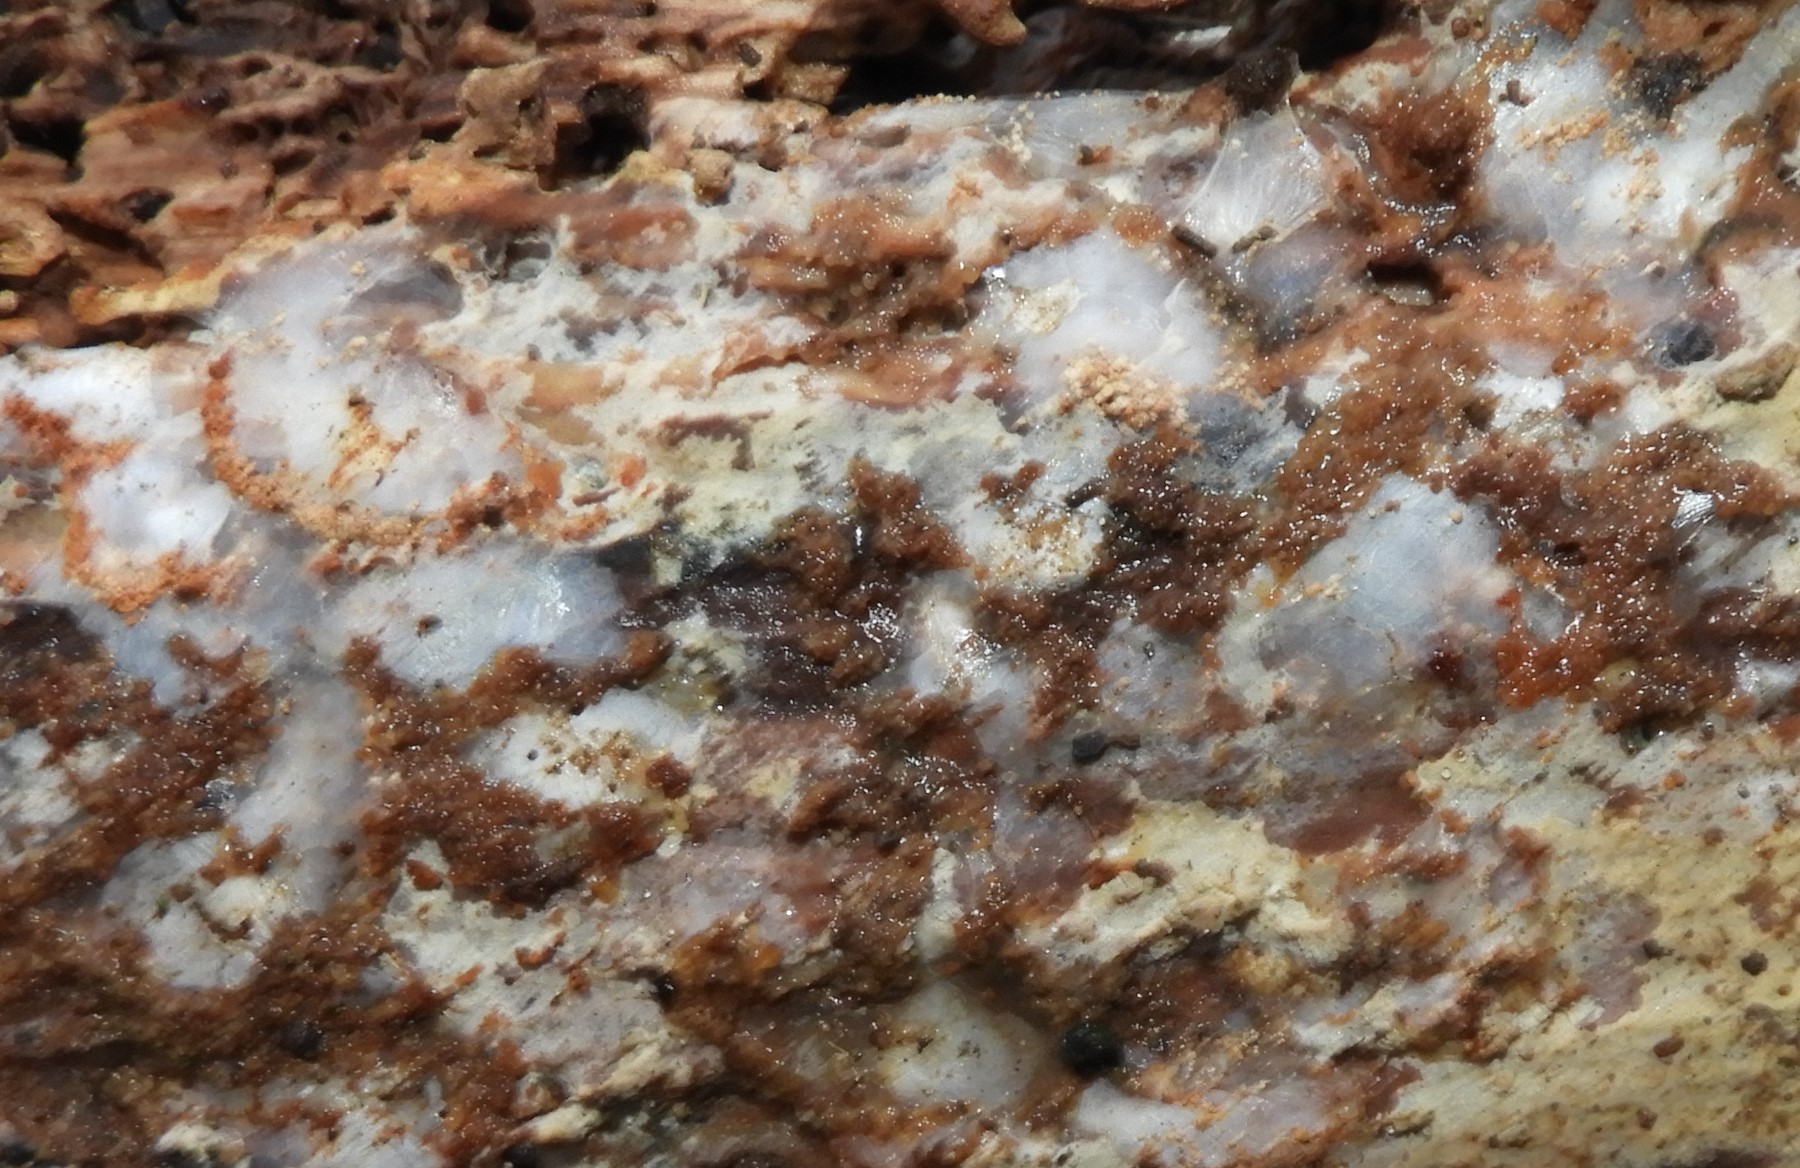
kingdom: Fungi
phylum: Basidiomycota
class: Tremellomycetes
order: Tremellales
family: Exidiaceae
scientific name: Exidiaceae
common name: bævretopfamilien
